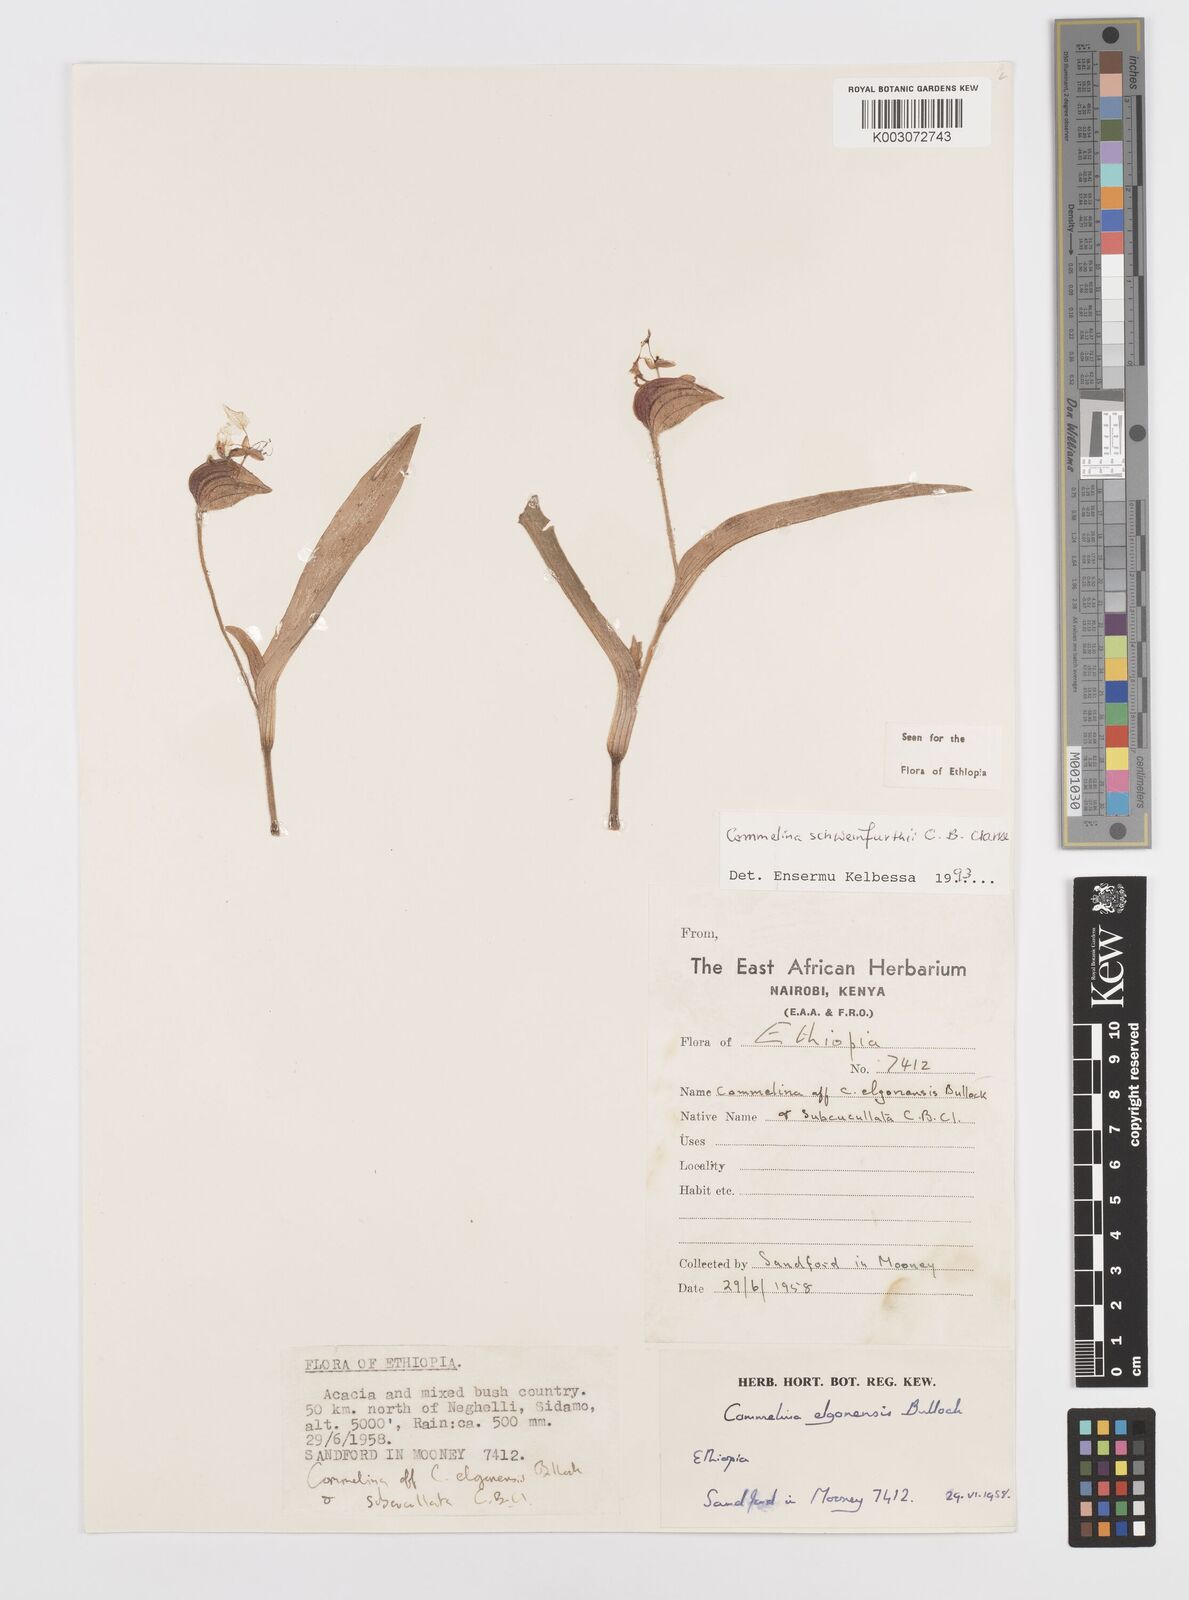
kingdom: Plantae
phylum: Tracheophyta
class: Liliopsida
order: Commelinales
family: Commelinaceae
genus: Commelina
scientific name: Commelina schweinfurthii
